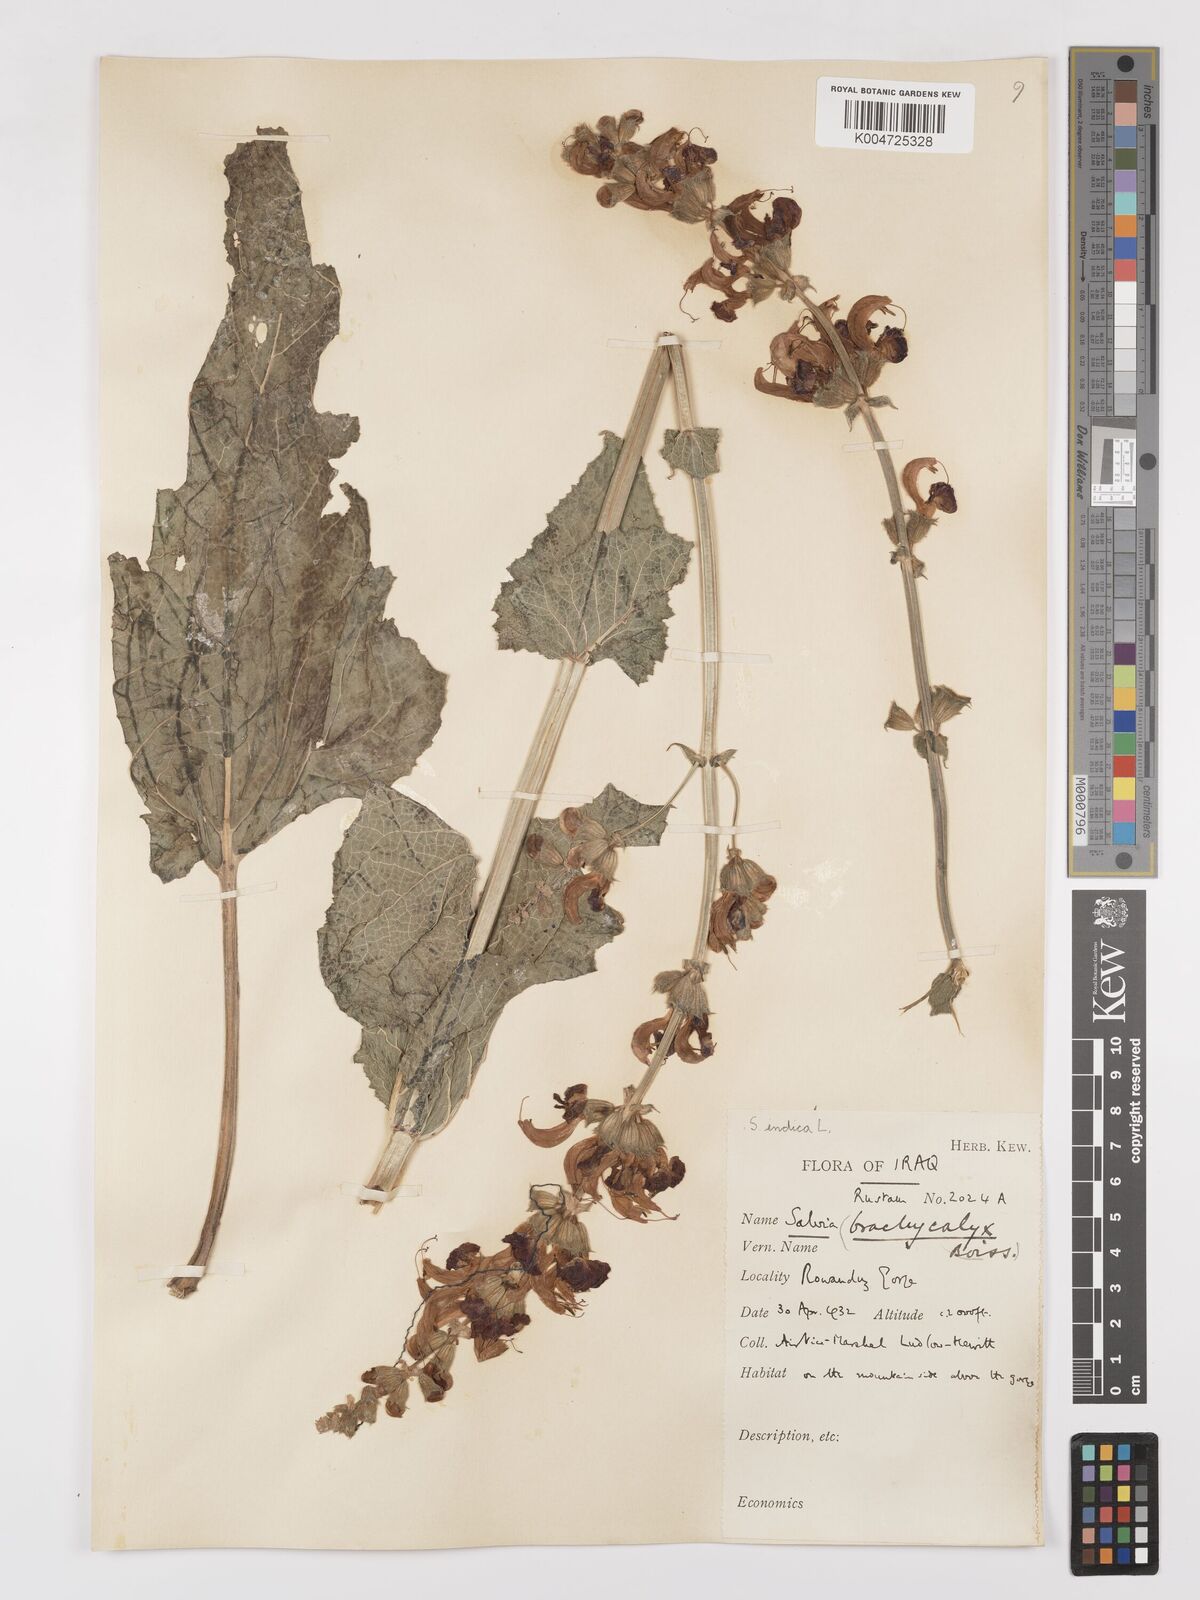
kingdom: Plantae
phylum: Tracheophyta
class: Magnoliopsida
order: Lamiales
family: Lamiaceae
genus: Salvia
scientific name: Salvia indica
